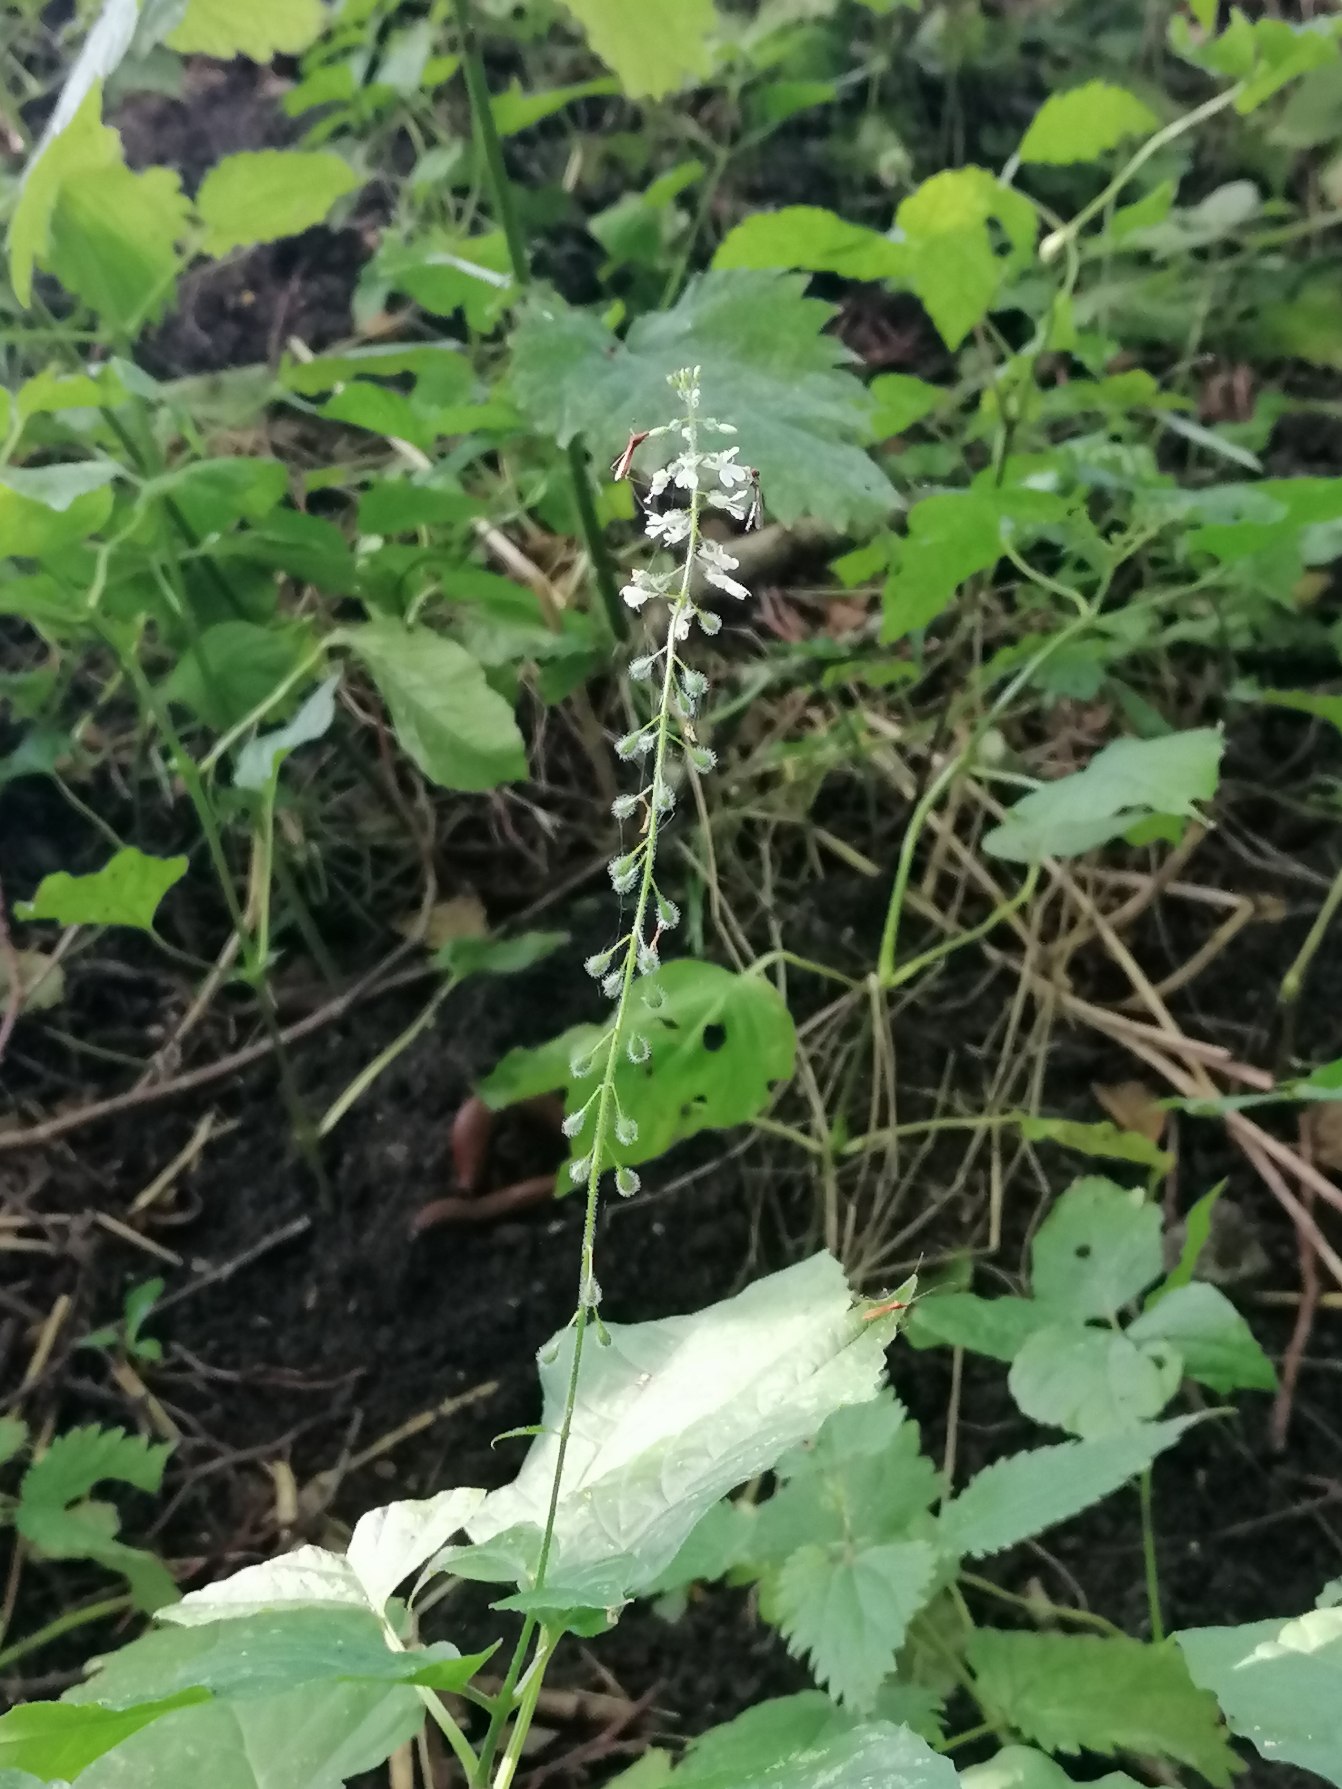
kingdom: Plantae
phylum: Tracheophyta
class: Magnoliopsida
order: Myrtales
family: Onagraceae
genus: Circaea
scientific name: Circaea lutetiana
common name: Dunet steffensurt
